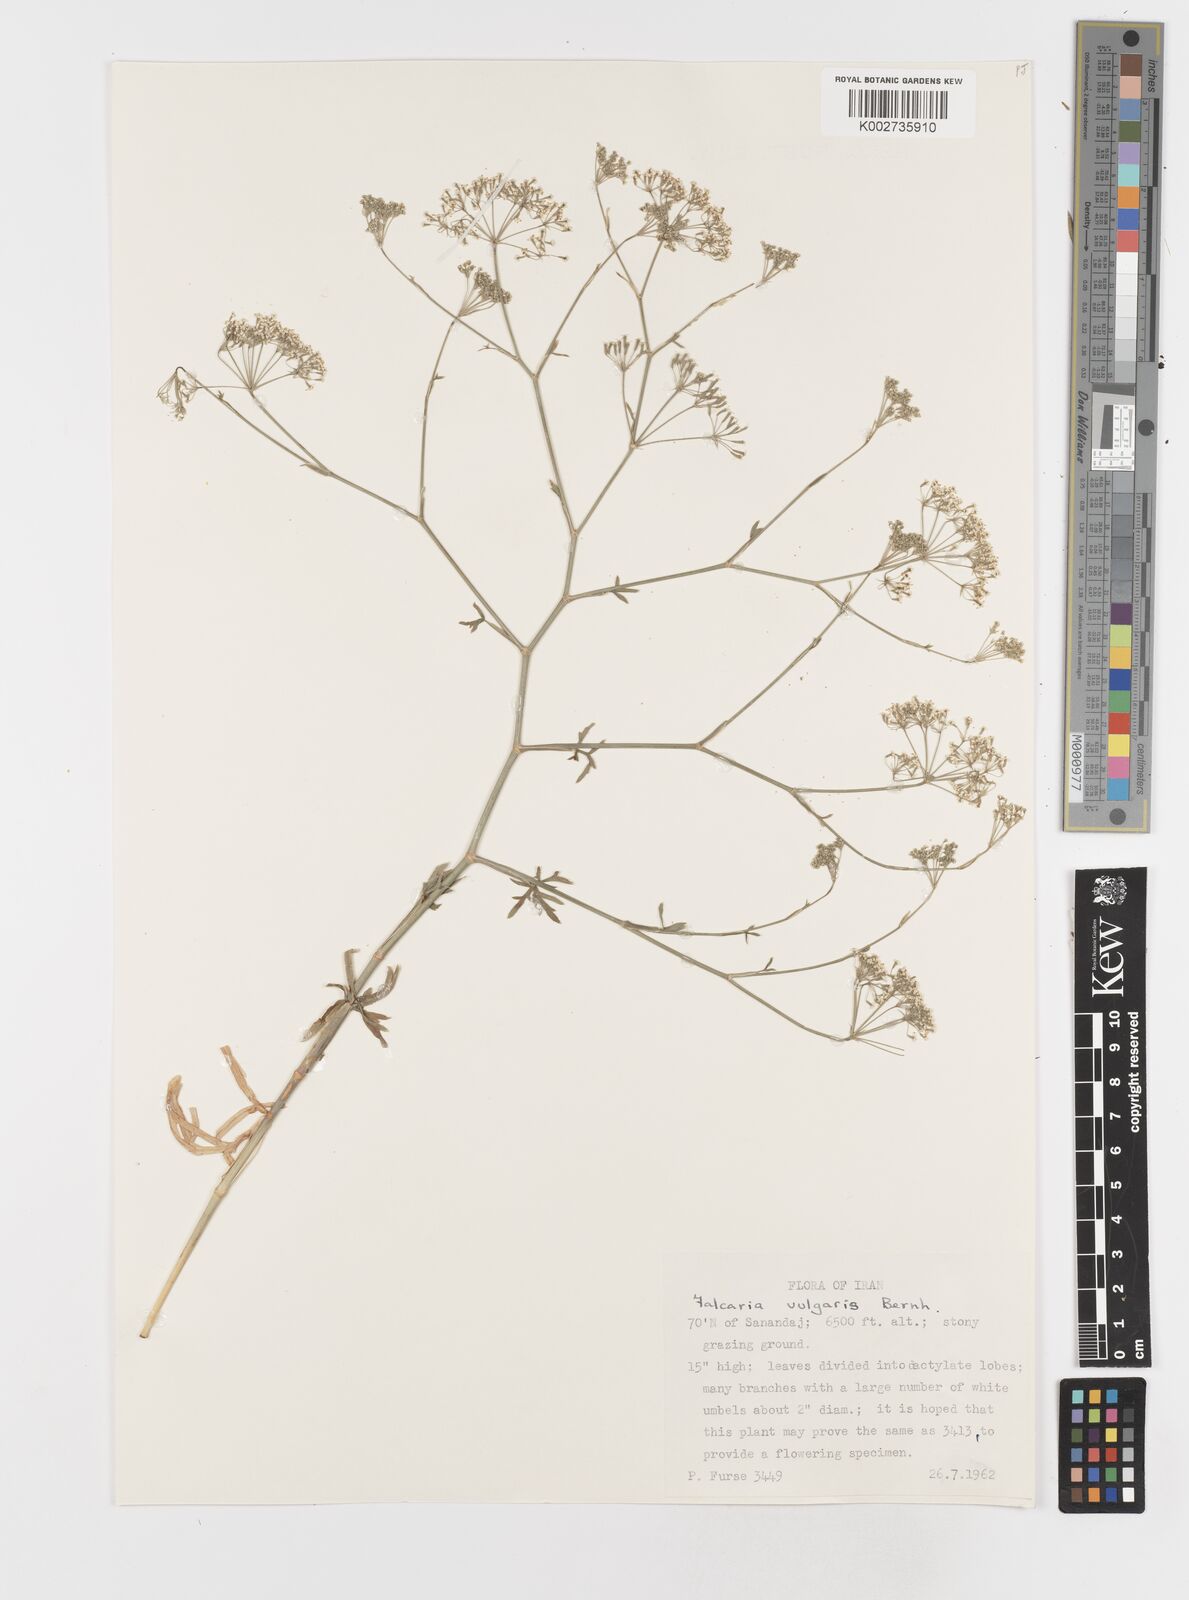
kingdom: Plantae
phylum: Tracheophyta
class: Magnoliopsida
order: Apiales
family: Apiaceae
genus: Falcaria
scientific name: Falcaria vulgaris
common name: Longleaf
